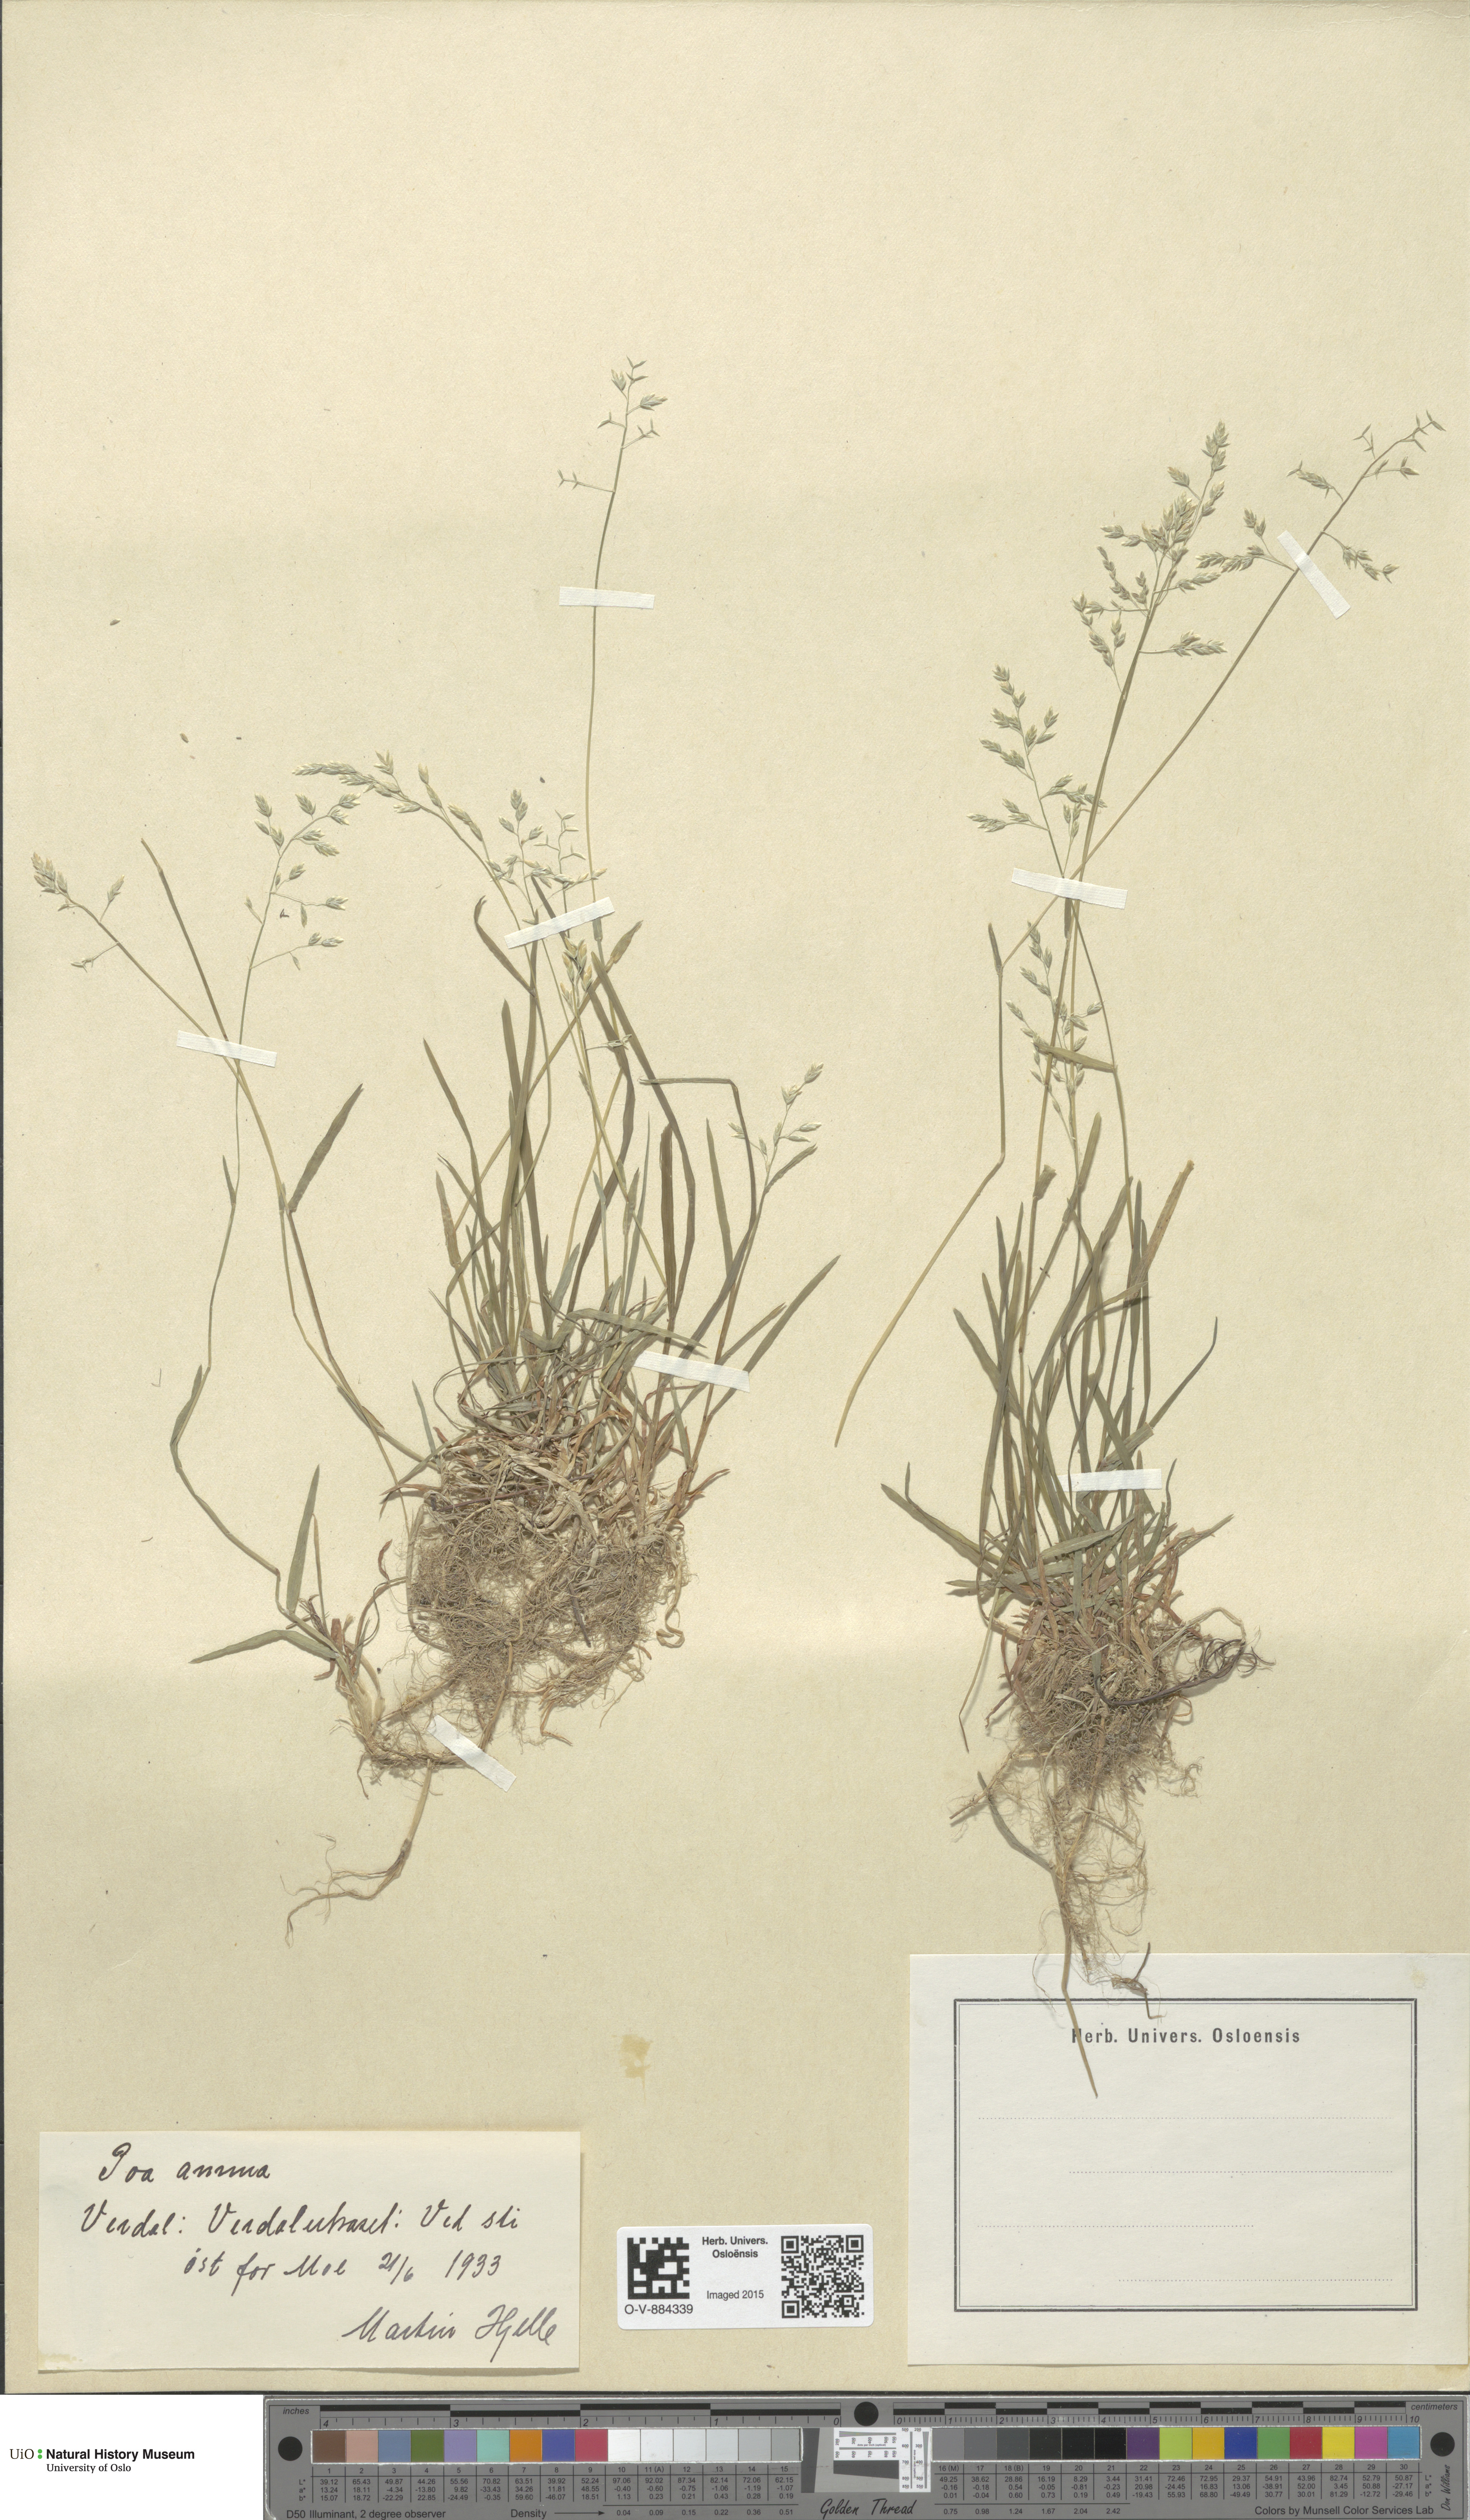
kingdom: Plantae
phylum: Tracheophyta
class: Liliopsida
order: Poales
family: Poaceae
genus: Poa
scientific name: Poa annua
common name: Annual bluegrass
